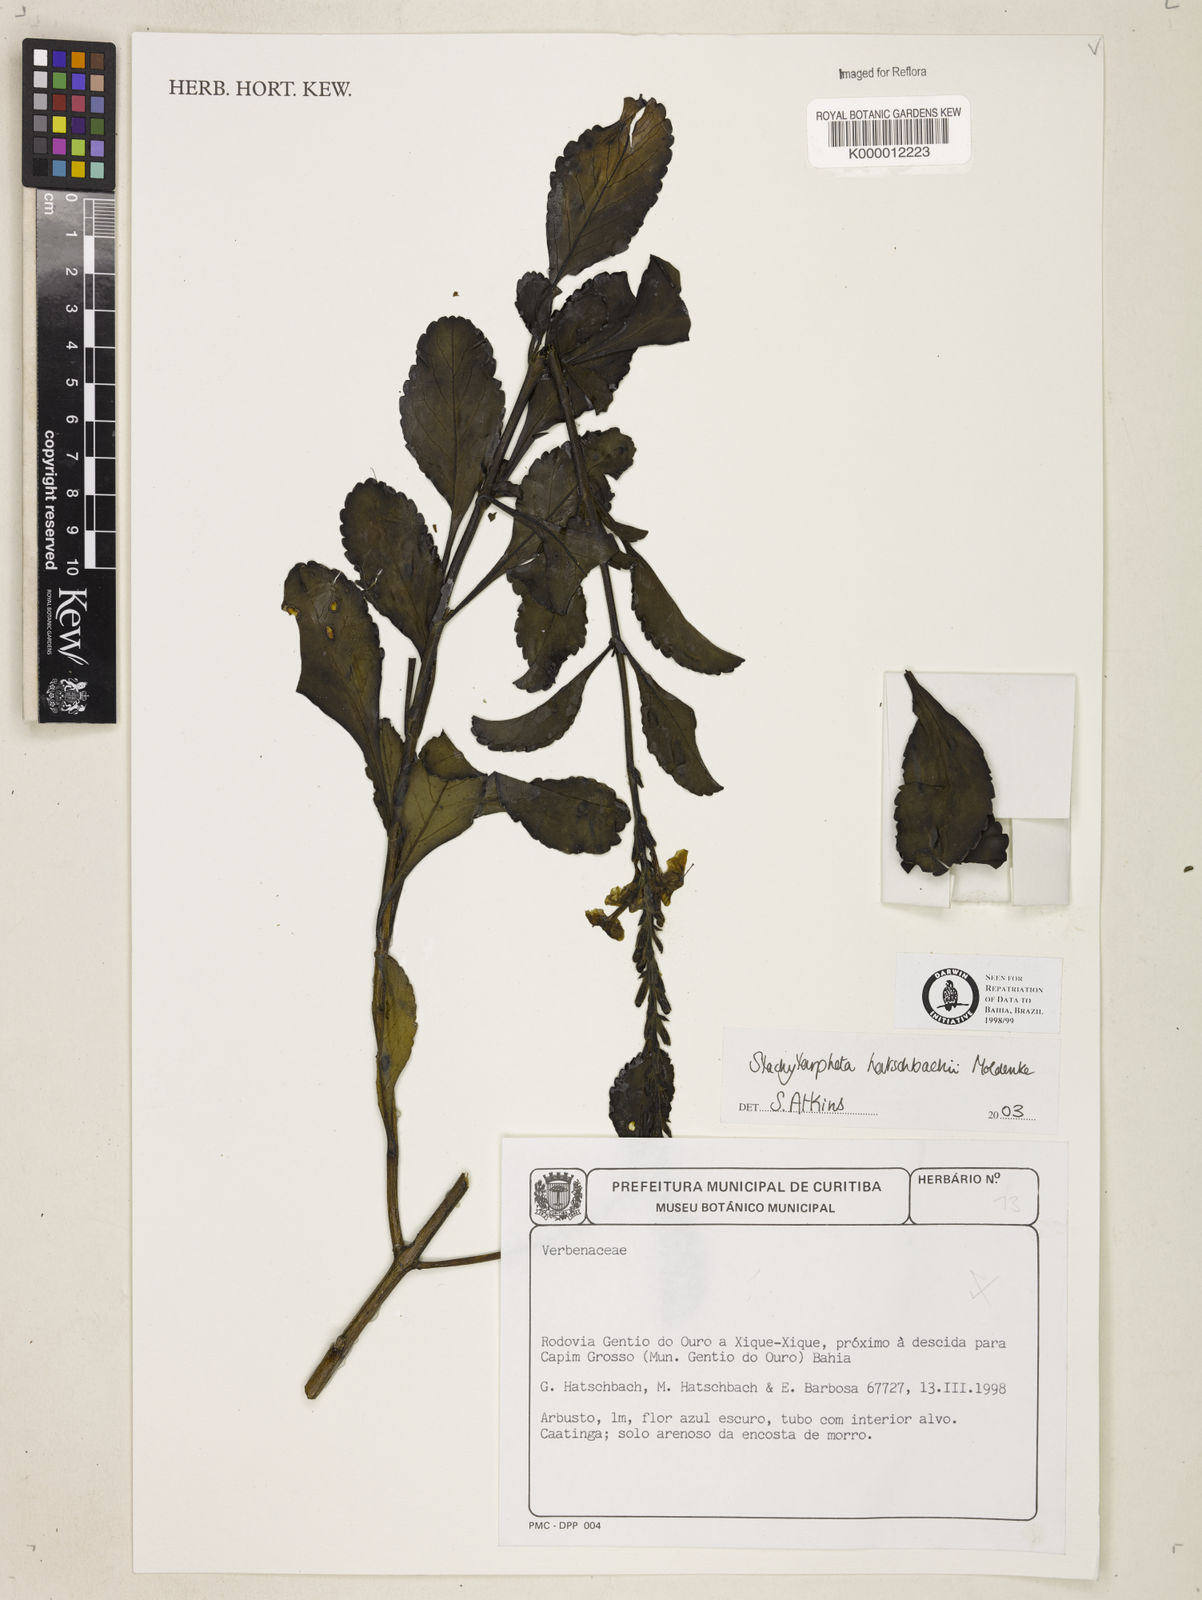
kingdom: Plantae
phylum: Tracheophyta
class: Magnoliopsida
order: Lamiales
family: Verbenaceae
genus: Stachytarpheta
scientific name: Stachytarpheta martiana
